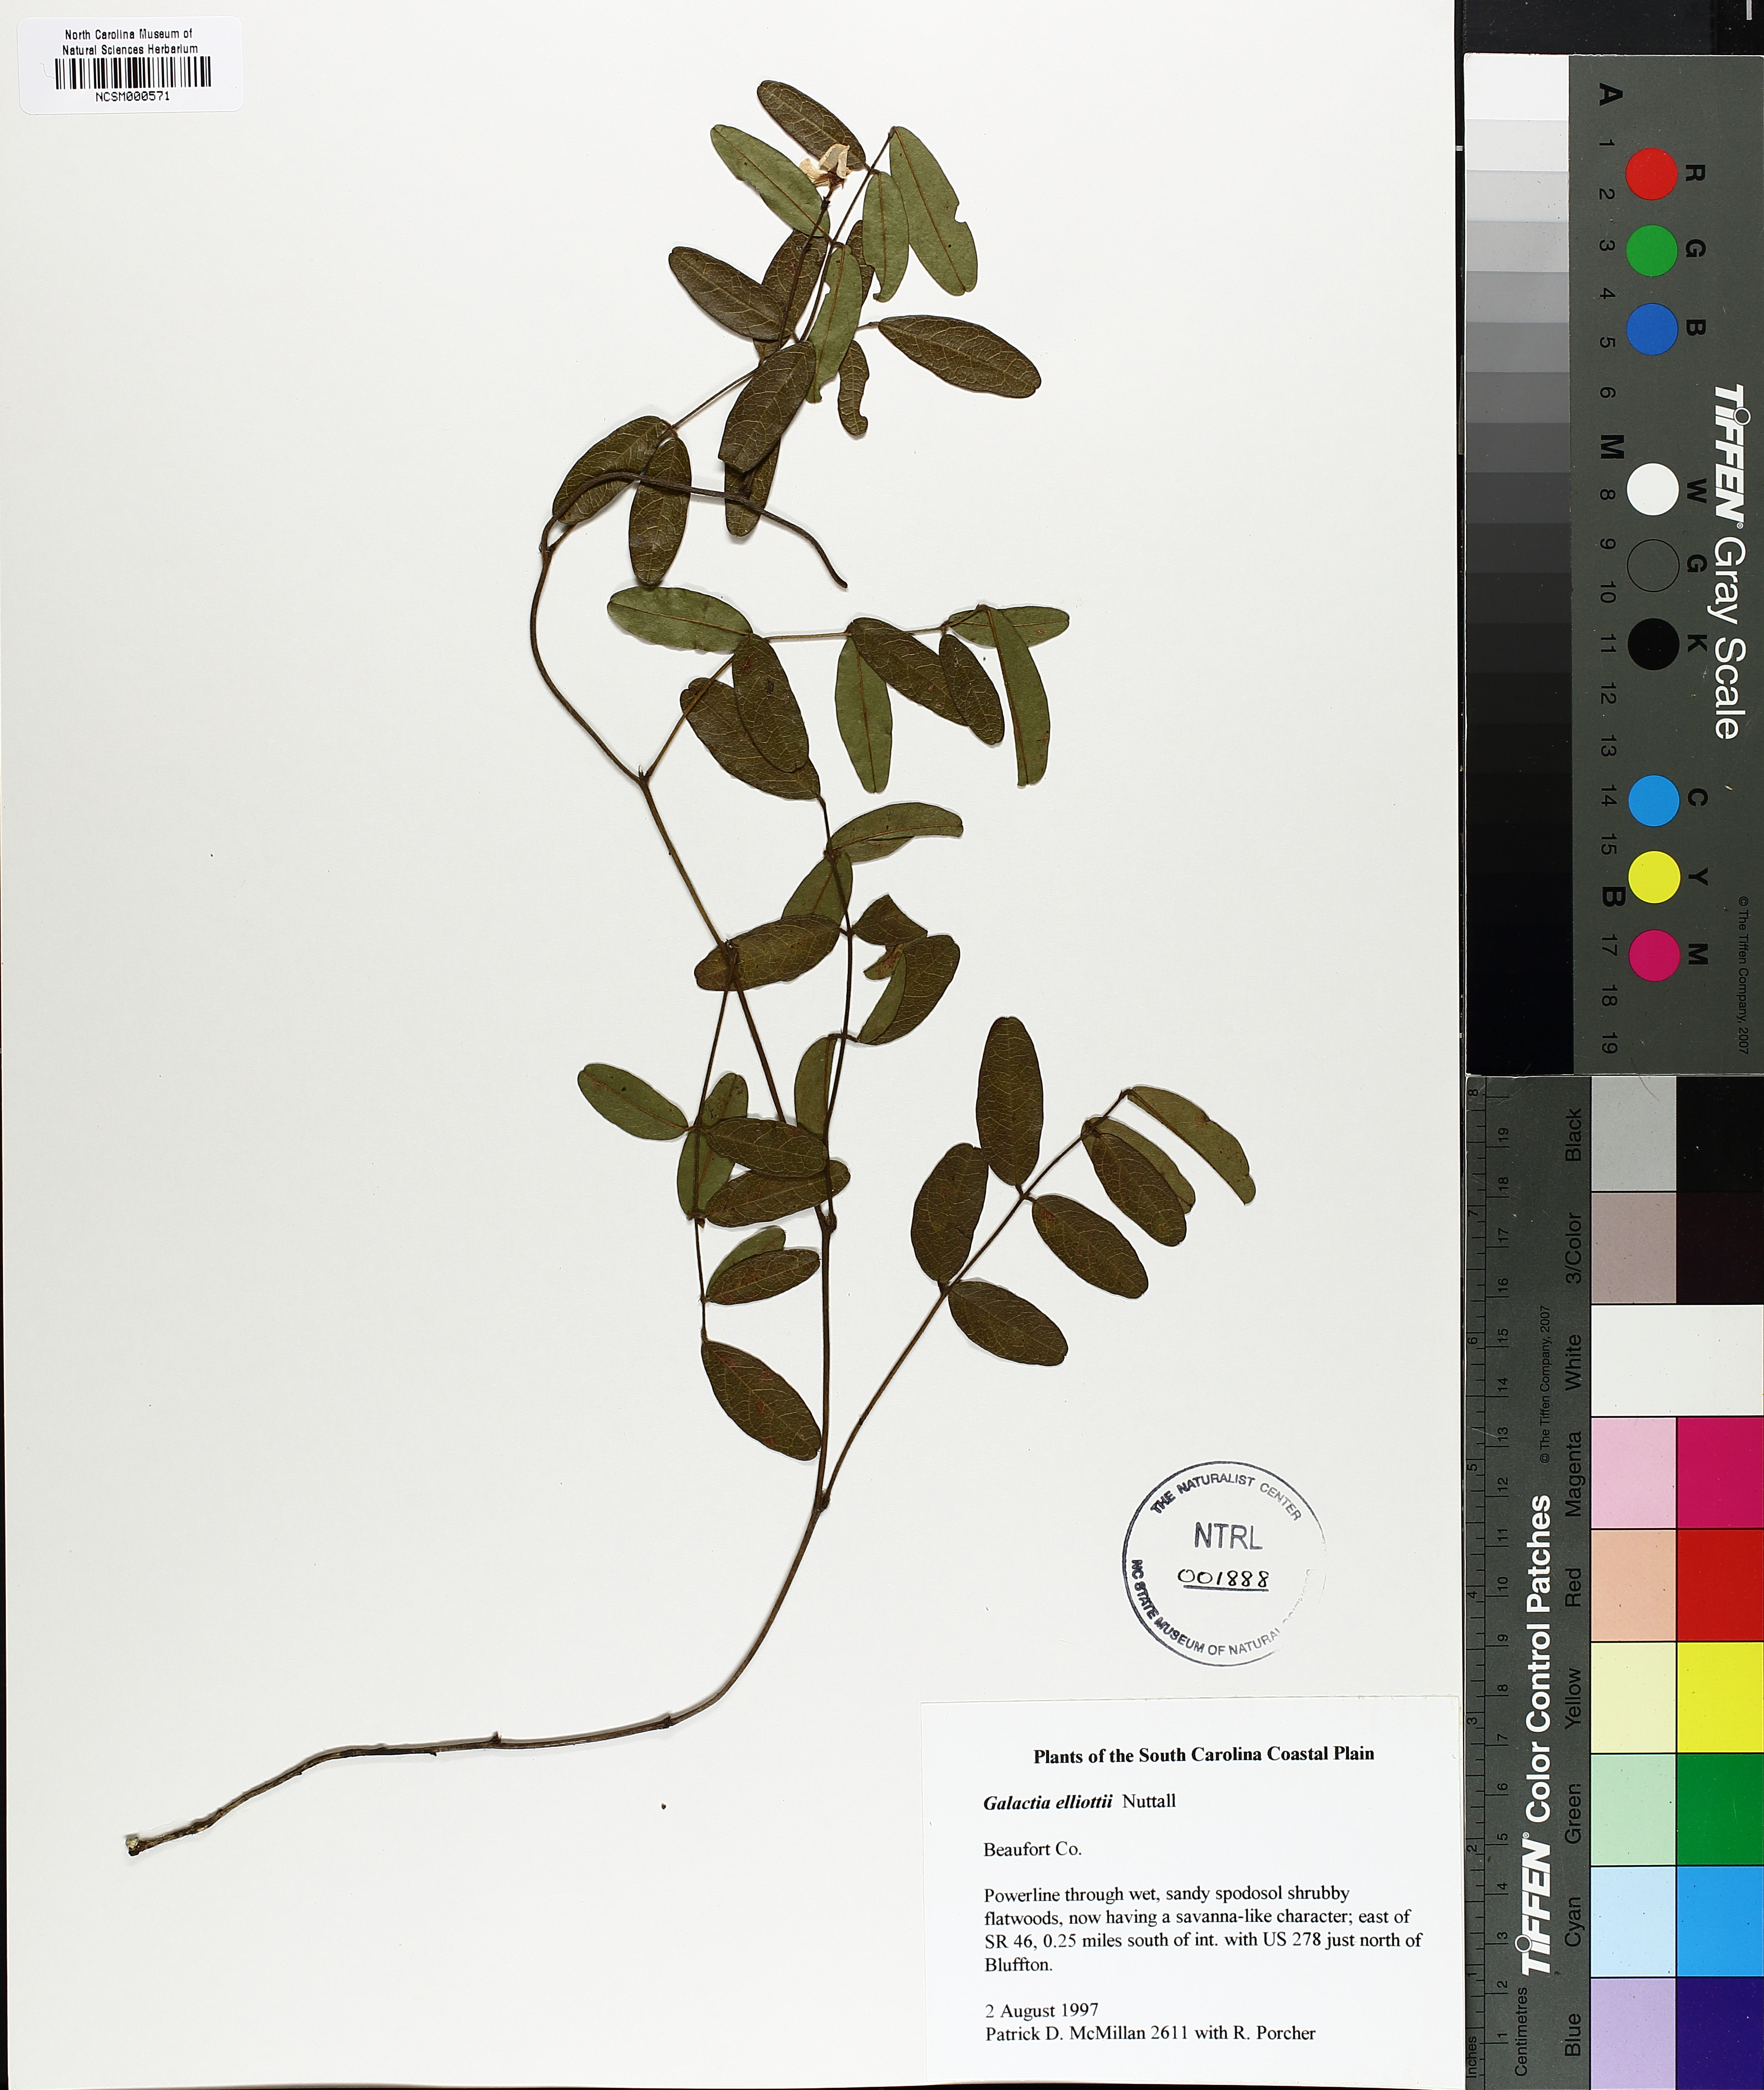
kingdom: Plantae
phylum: Tracheophyta
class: Magnoliopsida
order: Fabales
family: Fabaceae
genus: Galactia
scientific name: Galactia elliottii
